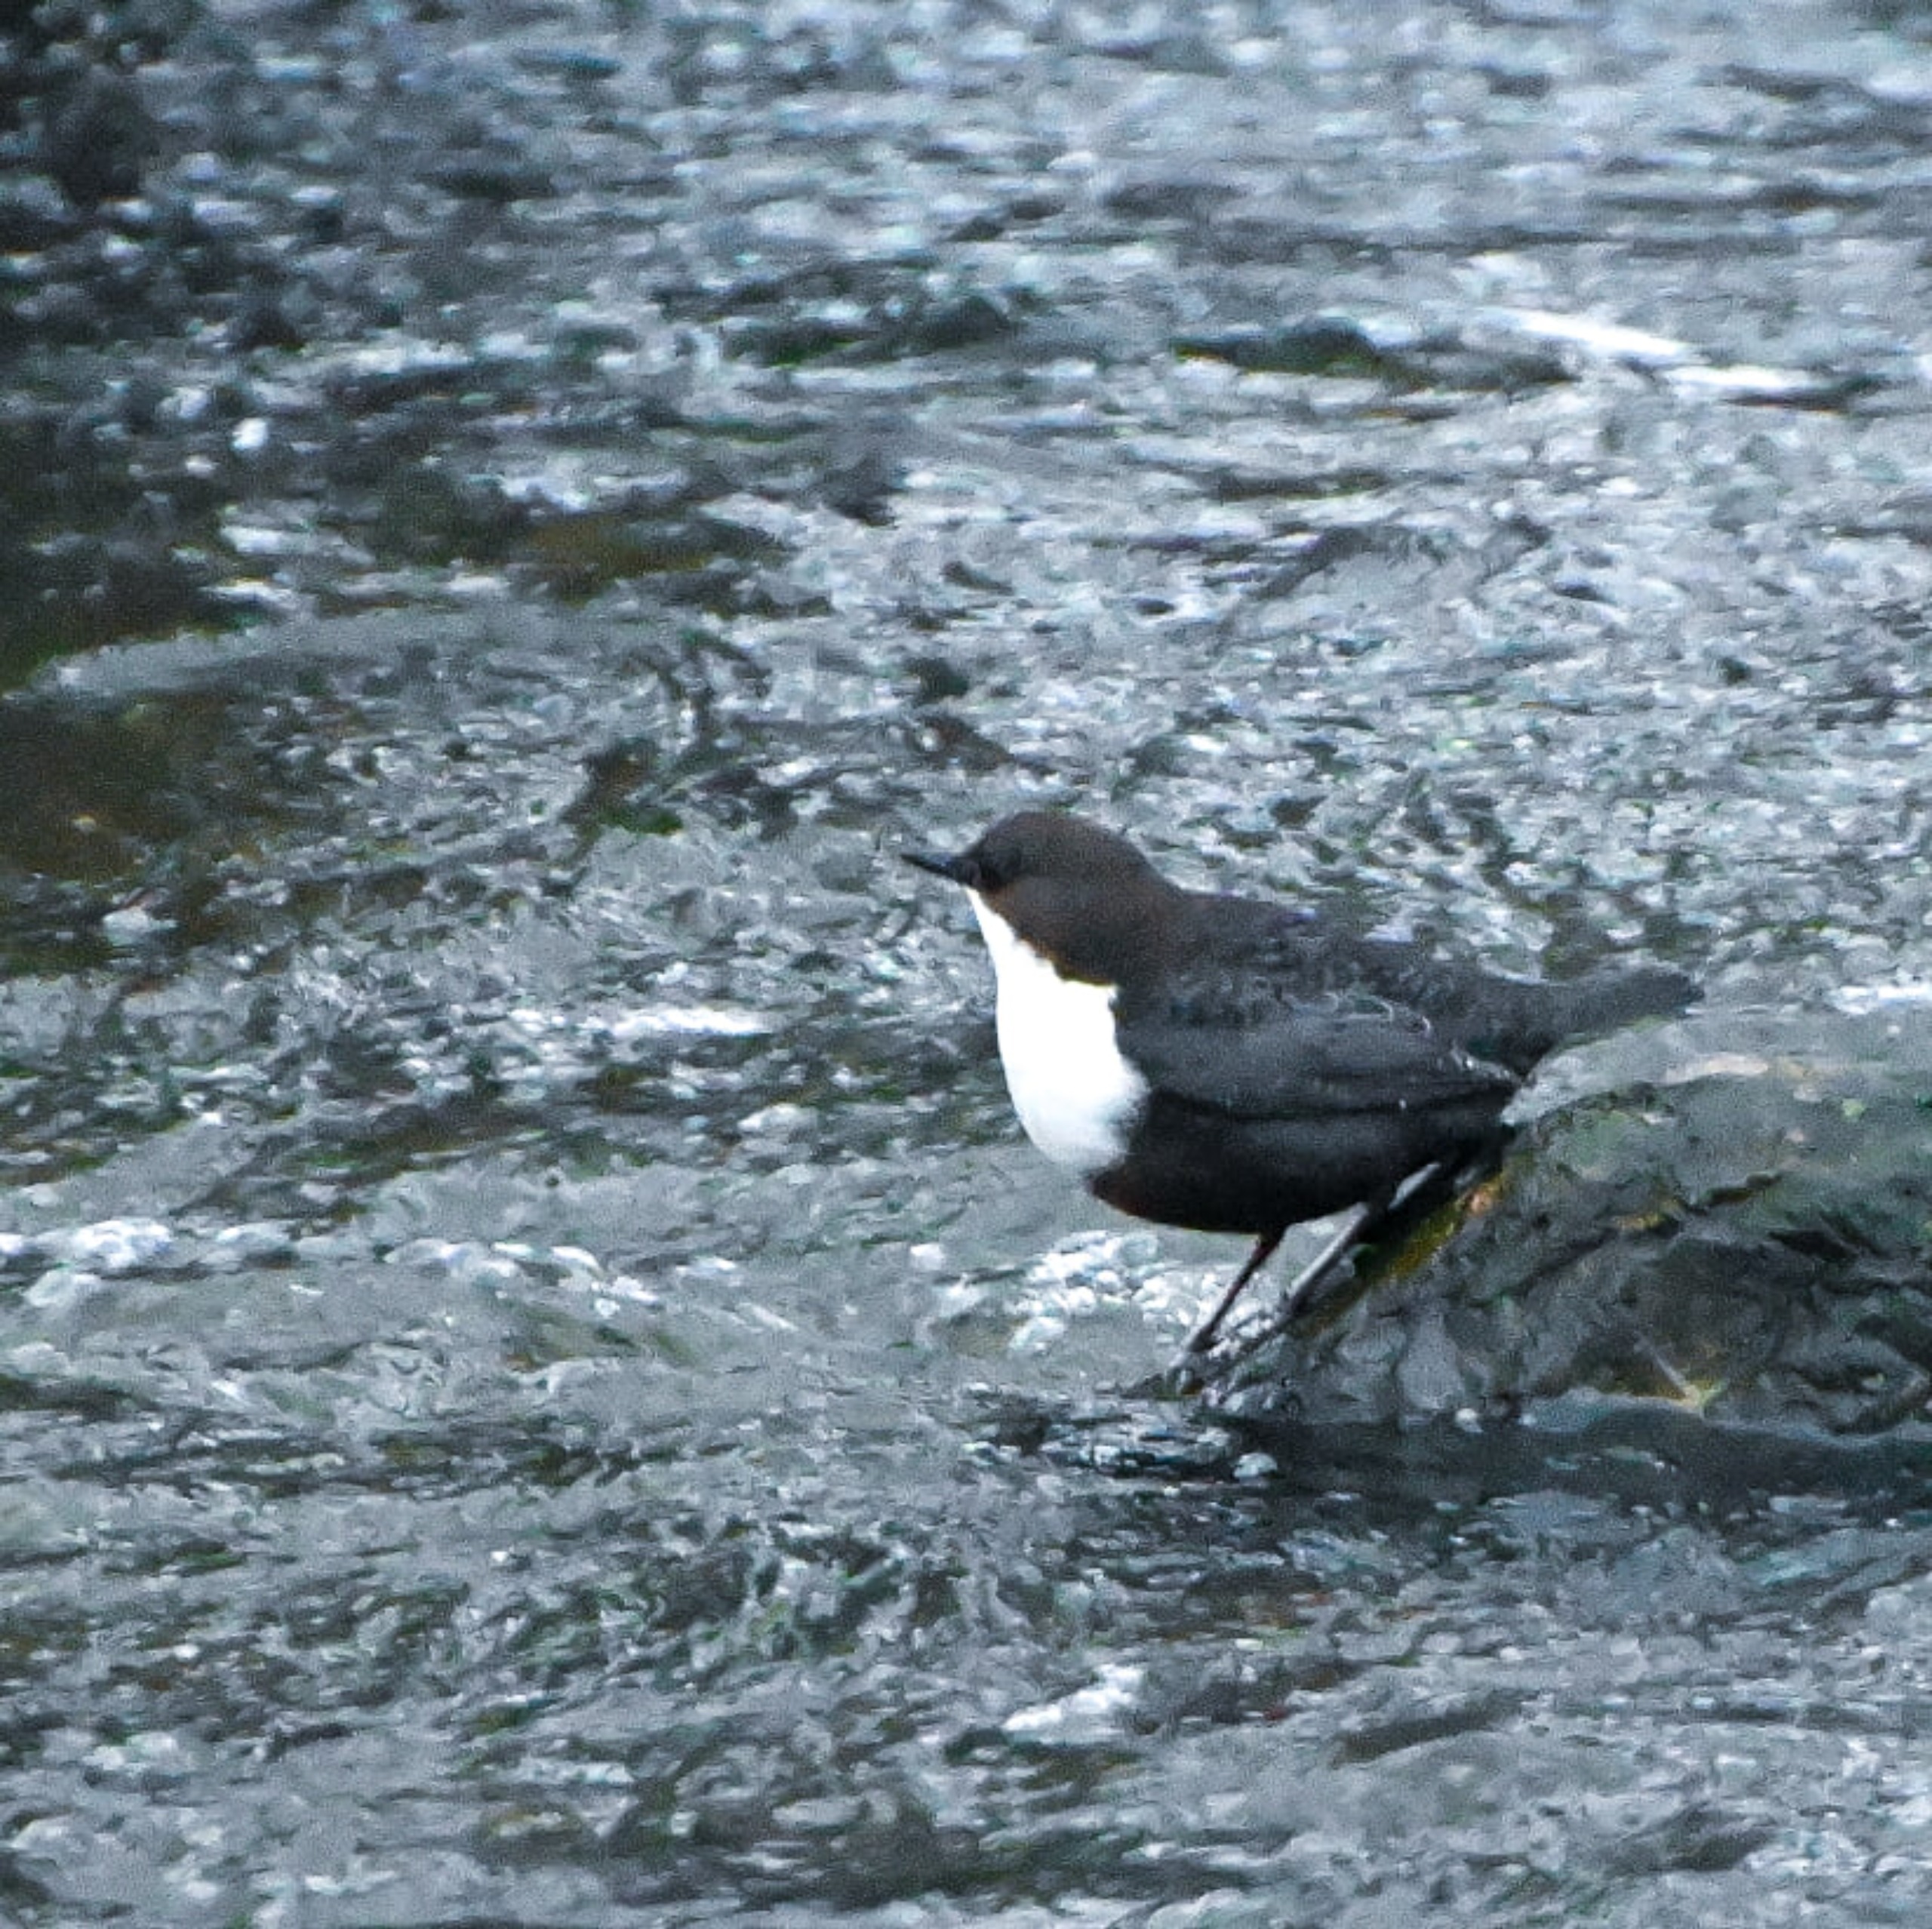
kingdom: Animalia
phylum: Chordata
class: Aves
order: Passeriformes
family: Cinclidae
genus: Cinclus
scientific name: Cinclus cinclus
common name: Vandstær
